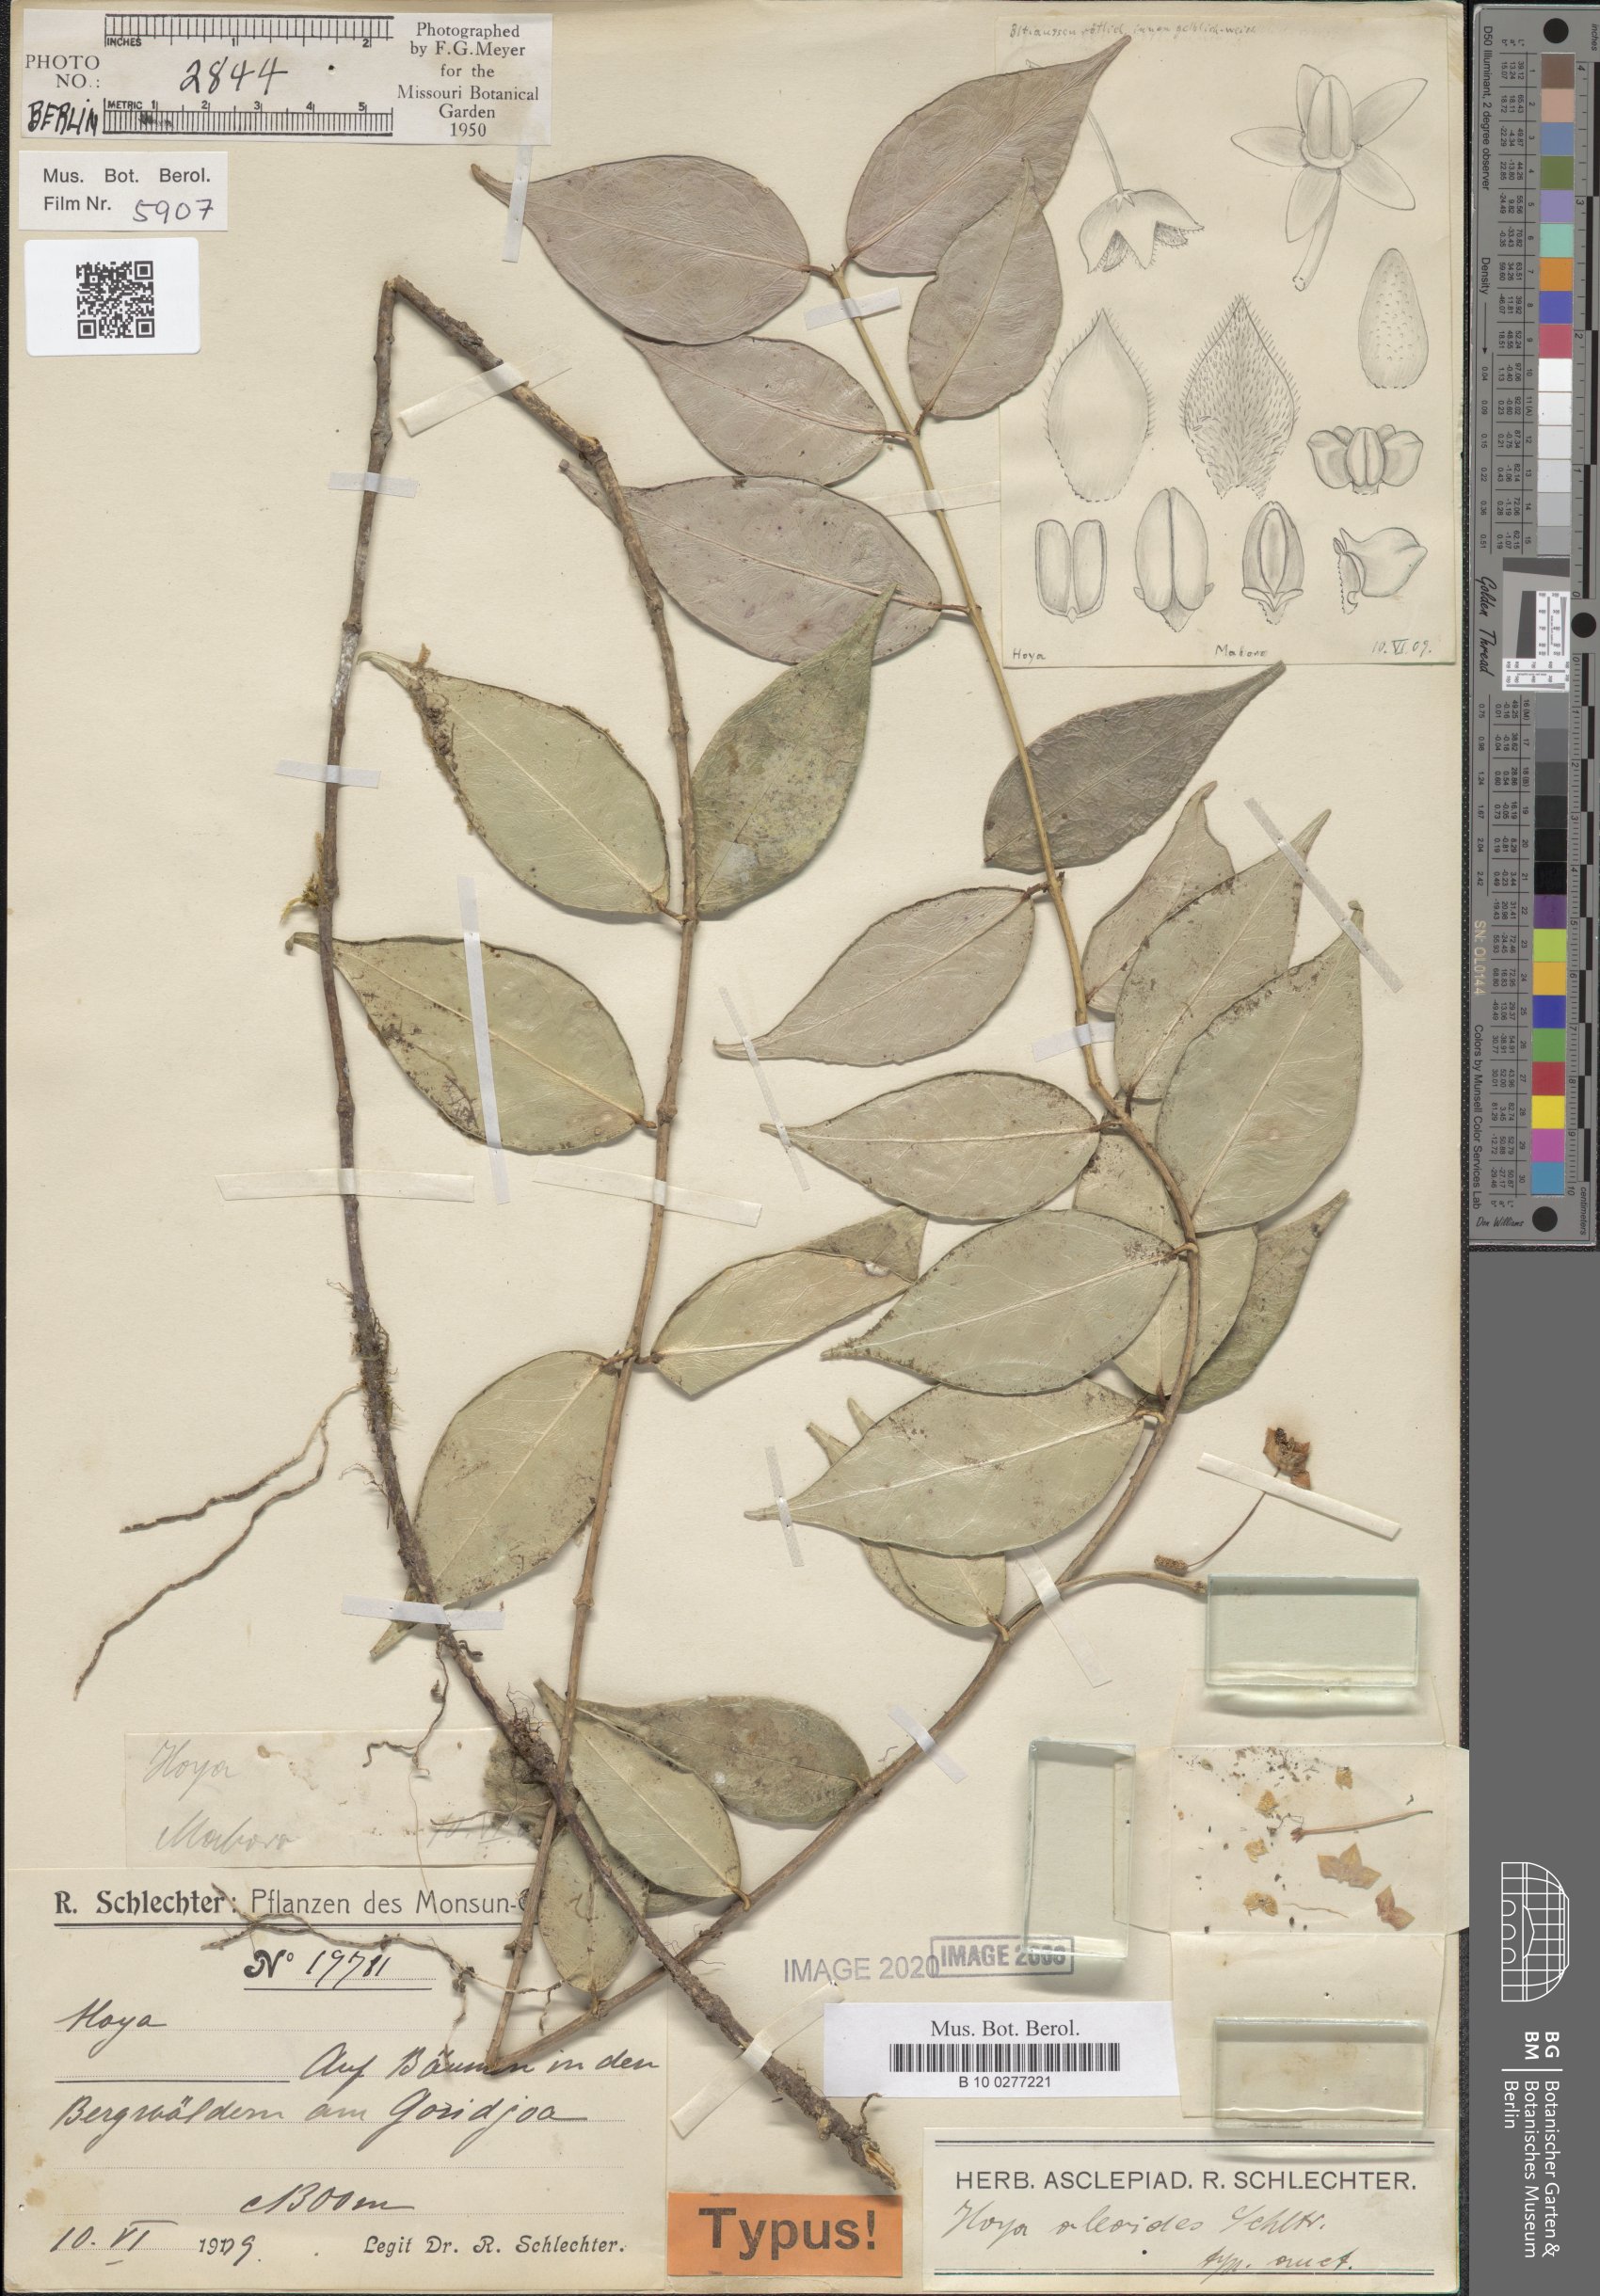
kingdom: Plantae
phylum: Tracheophyta
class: Magnoliopsida
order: Gentianales
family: Apocynaceae
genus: Hoya
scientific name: Hoya oleoides
